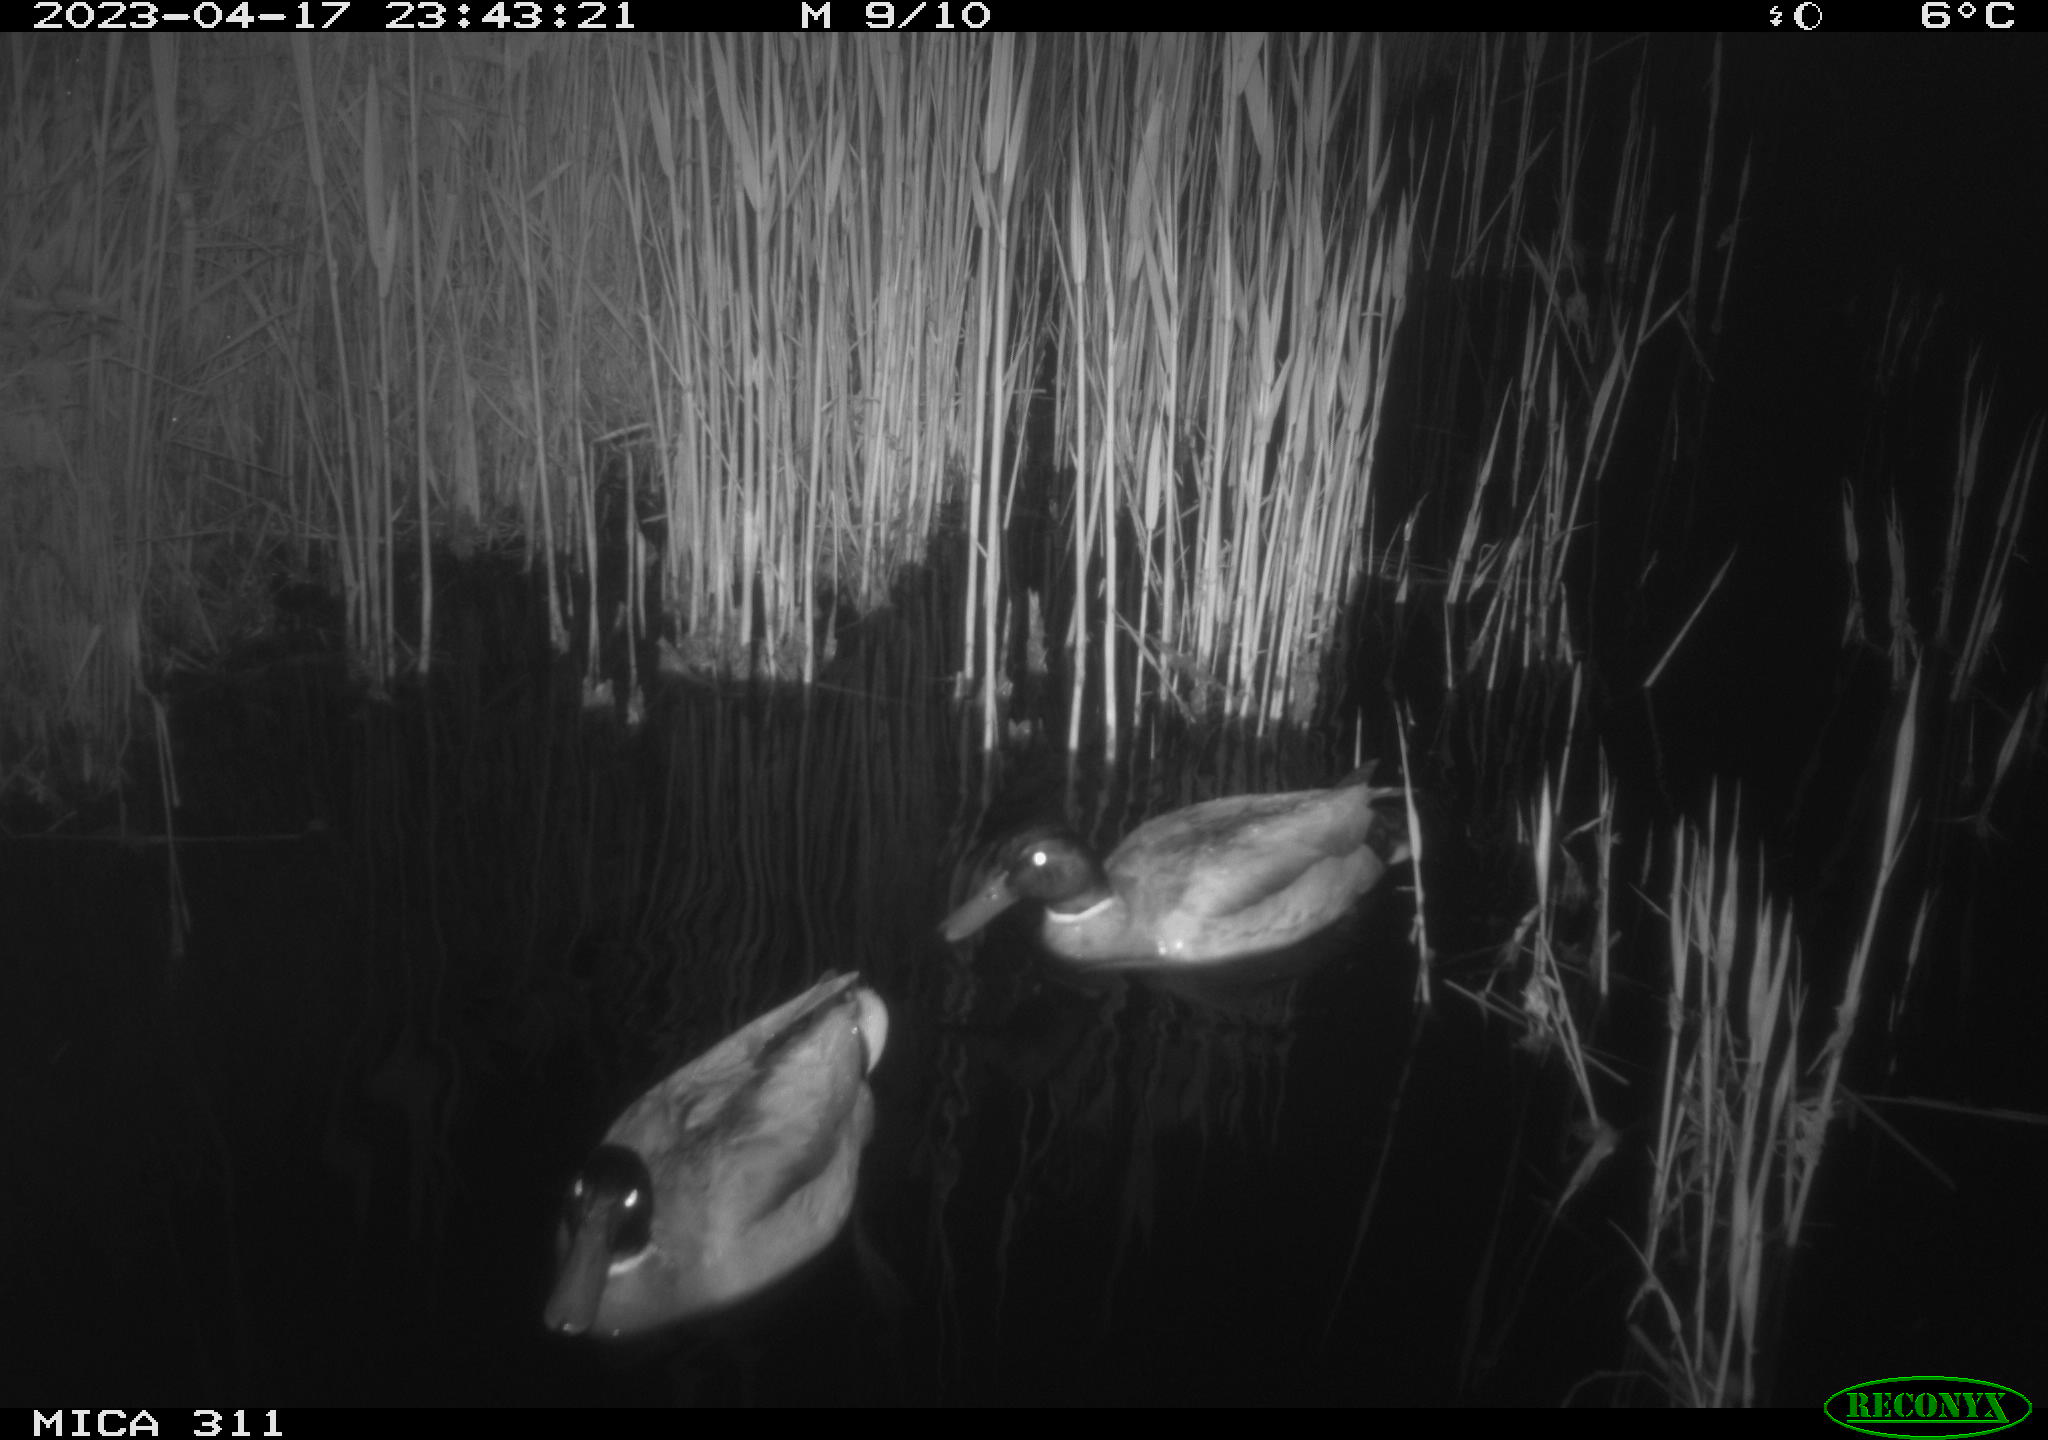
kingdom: Animalia
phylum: Chordata
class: Aves
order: Anseriformes
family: Anatidae
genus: Anas
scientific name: Anas
